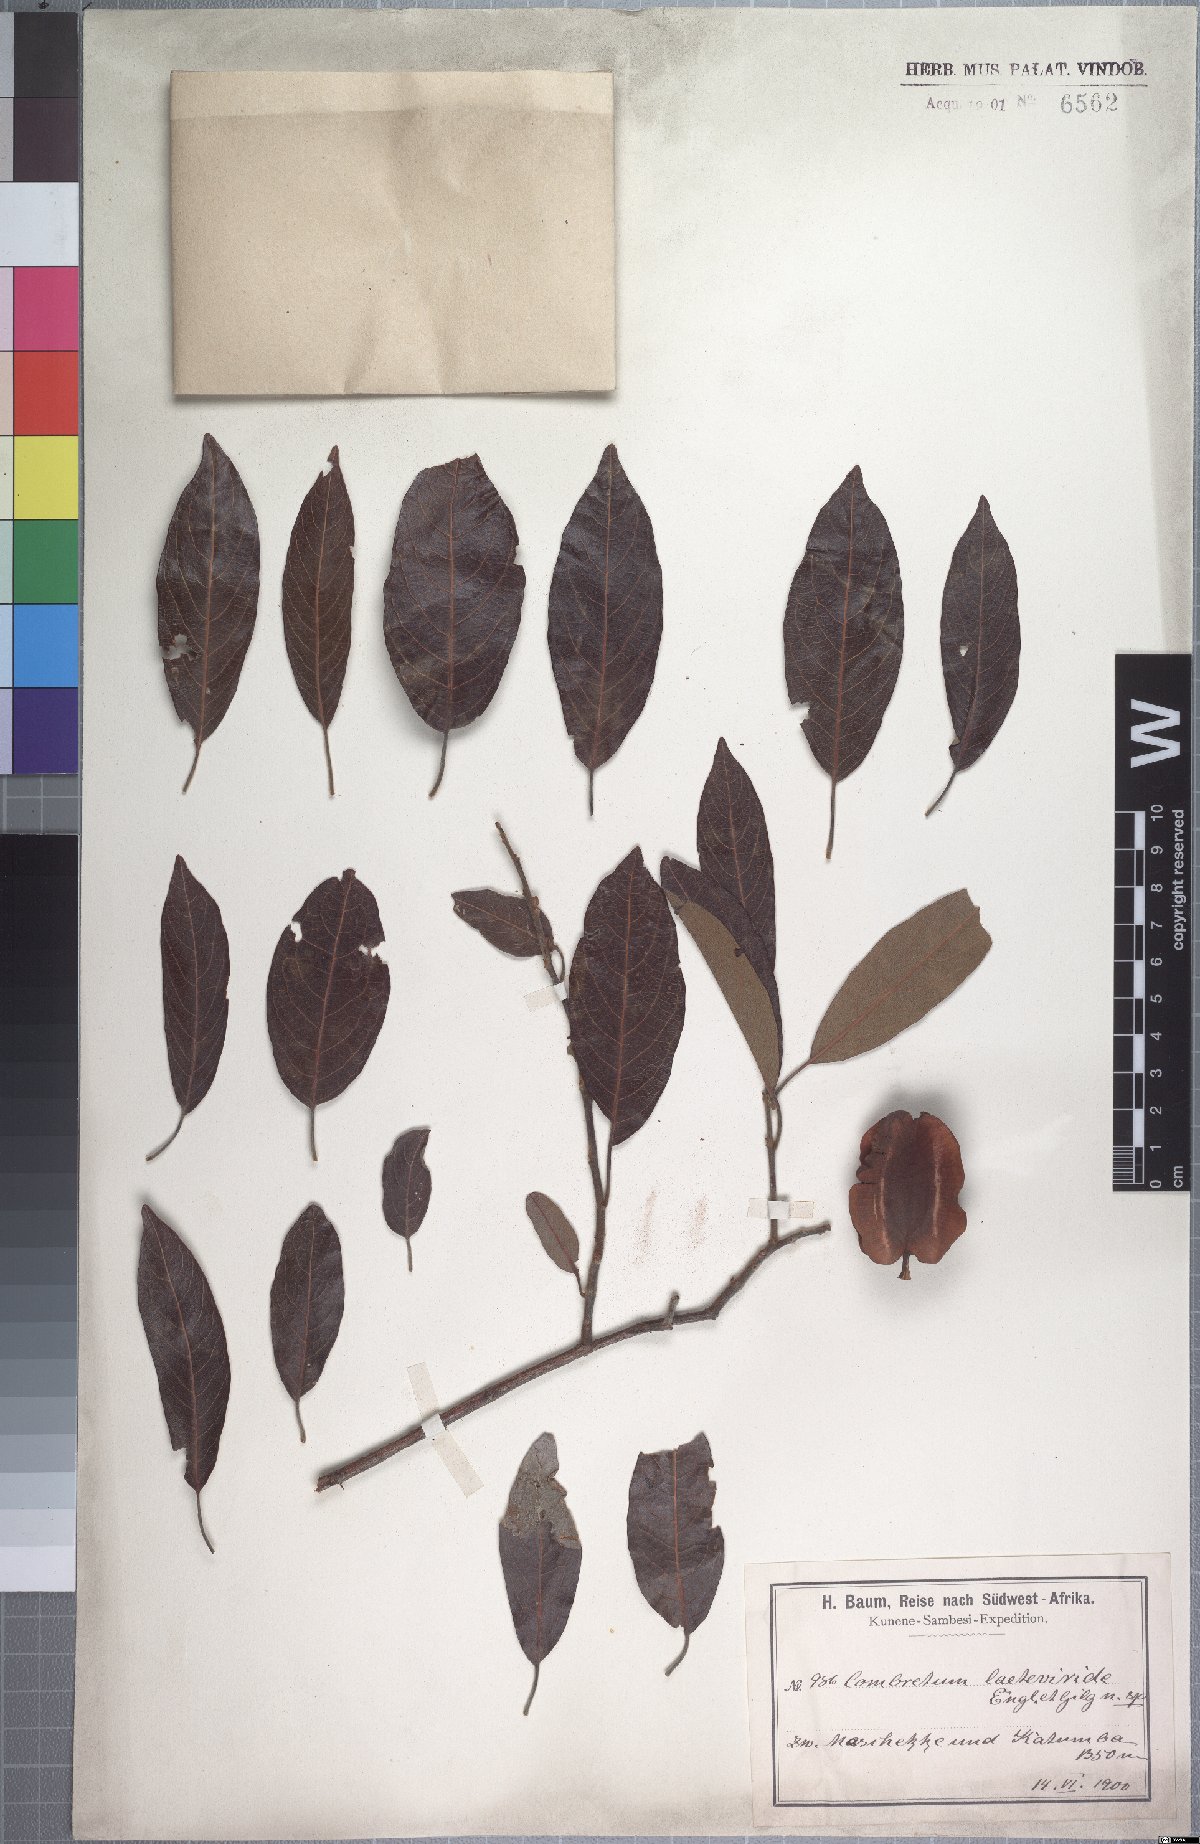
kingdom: Plantae
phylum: Tracheophyta
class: Magnoliopsida
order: Myrtales
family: Combretaceae
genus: Combretum
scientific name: Combretum collinum
